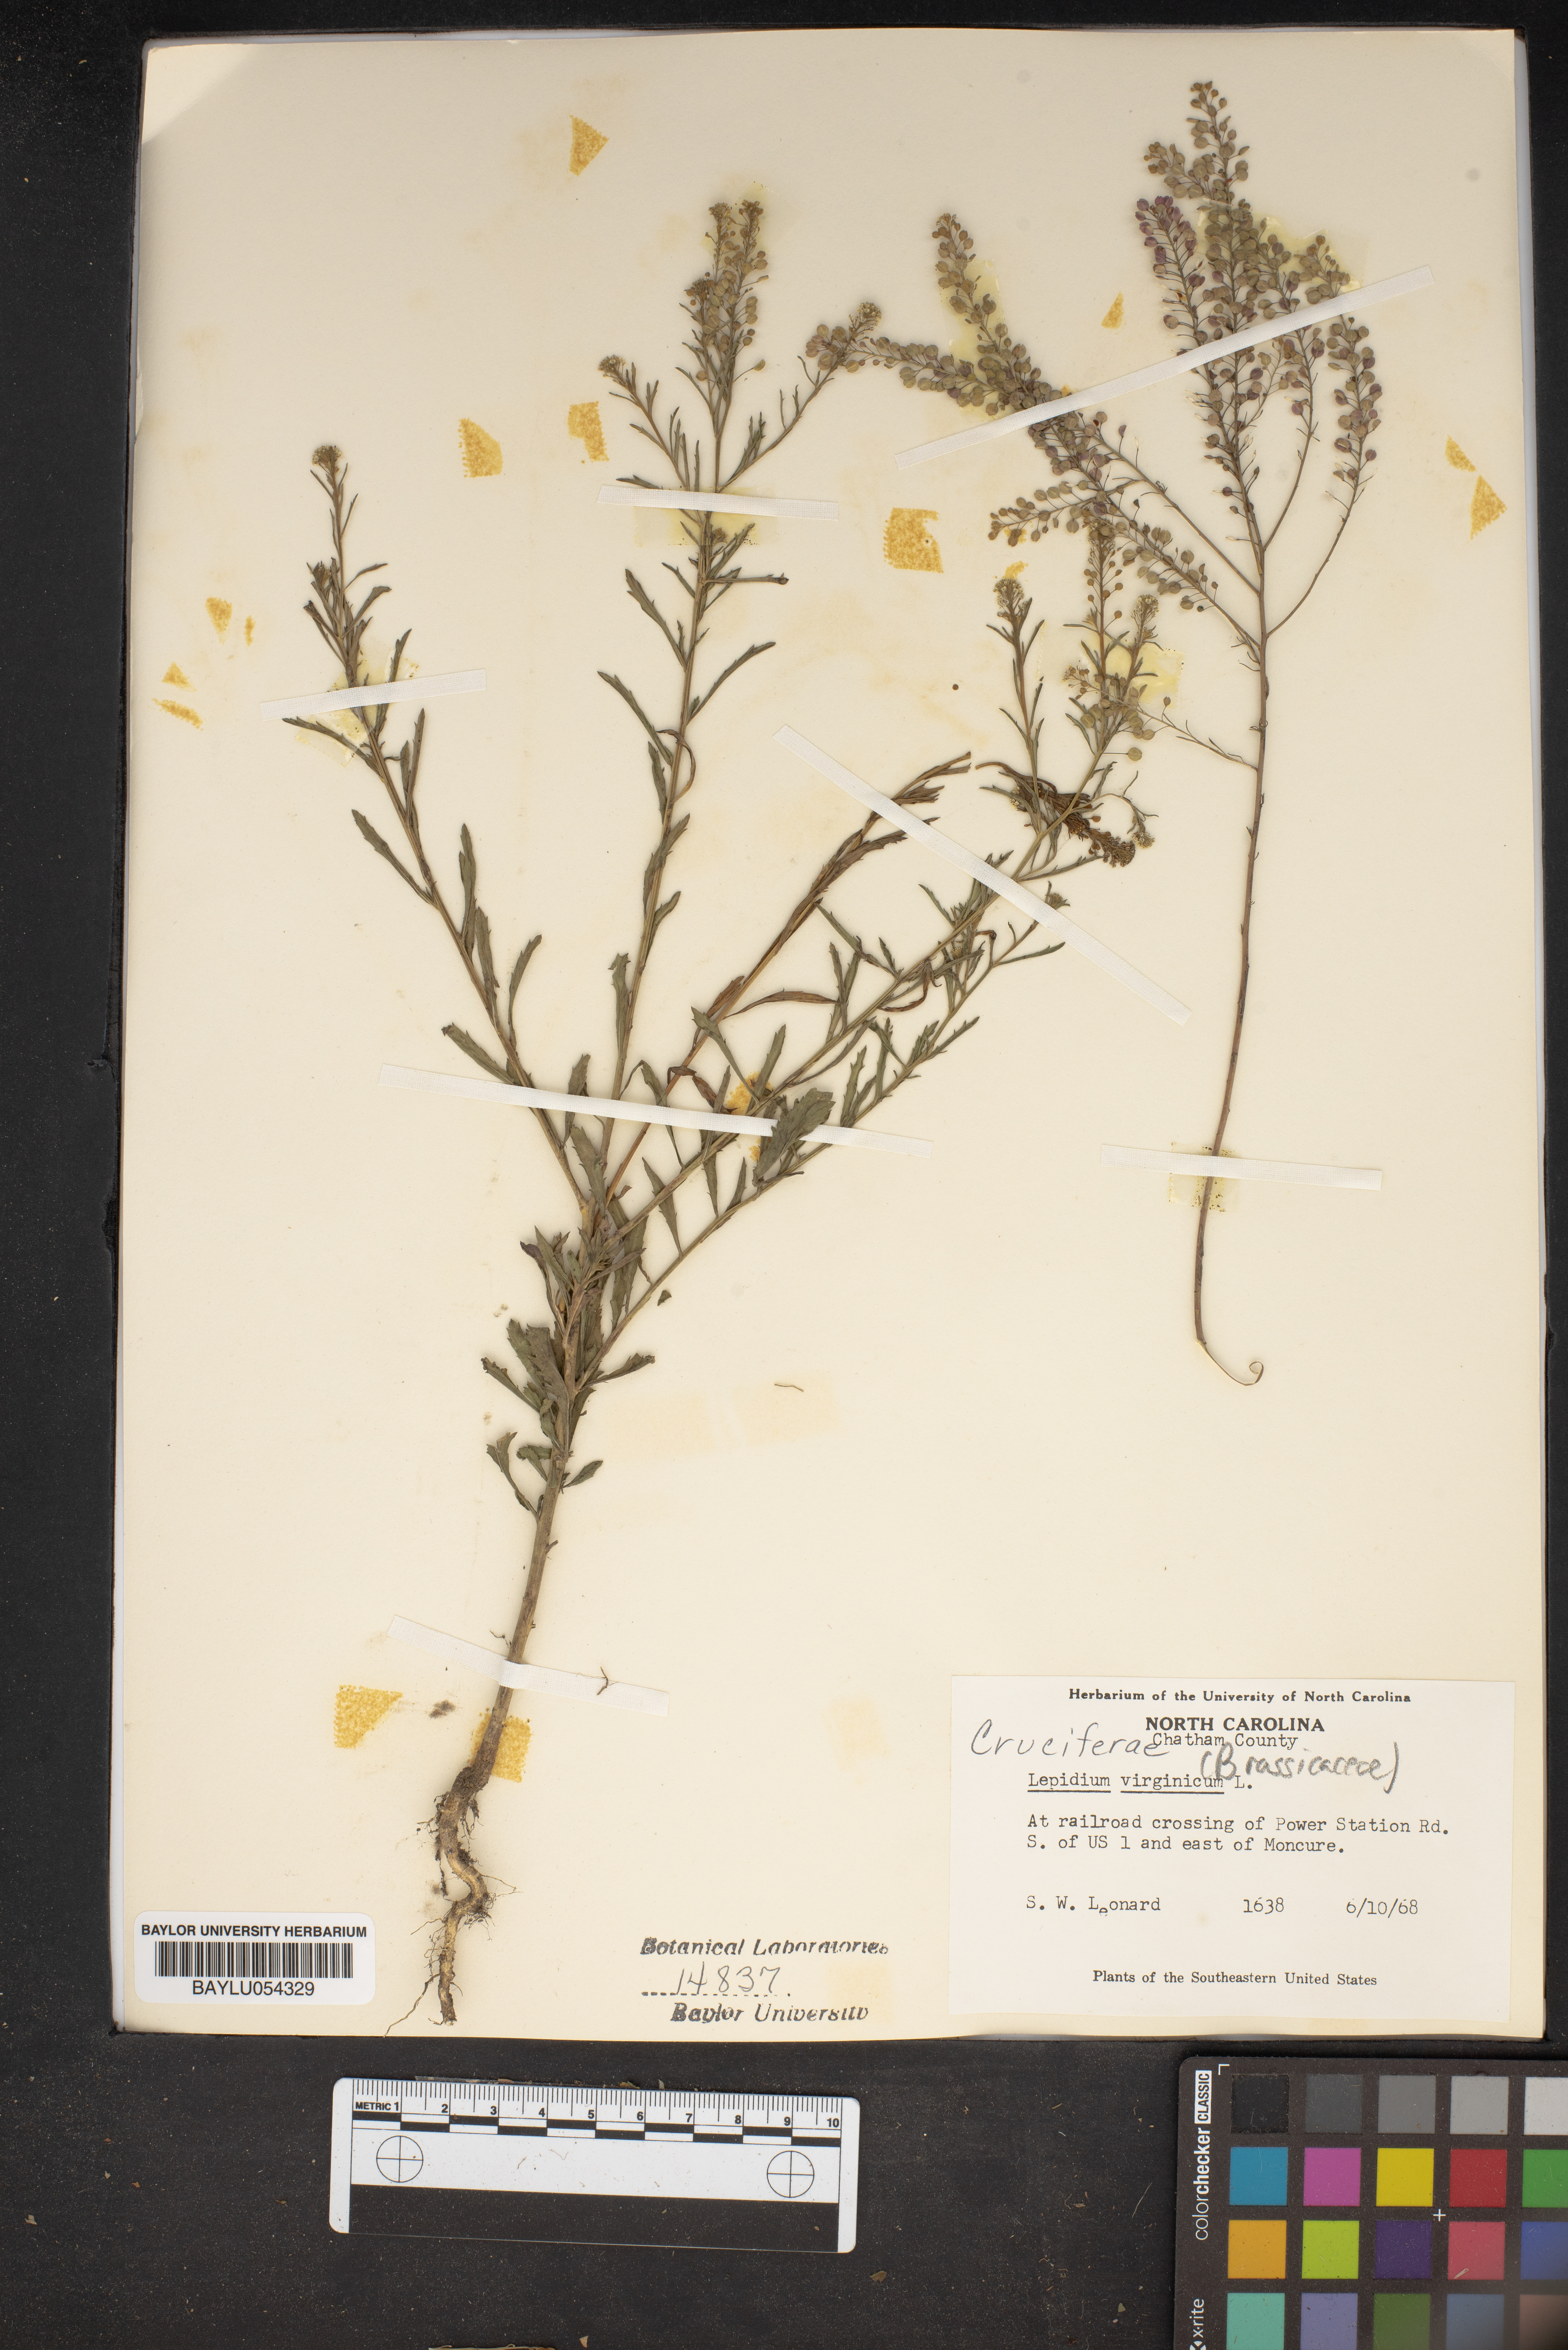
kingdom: Plantae
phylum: Tracheophyta
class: Magnoliopsida
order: Brassicales
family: Brassicaceae
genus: Lepidium
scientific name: Lepidium virginicum
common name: Least pepperwort
